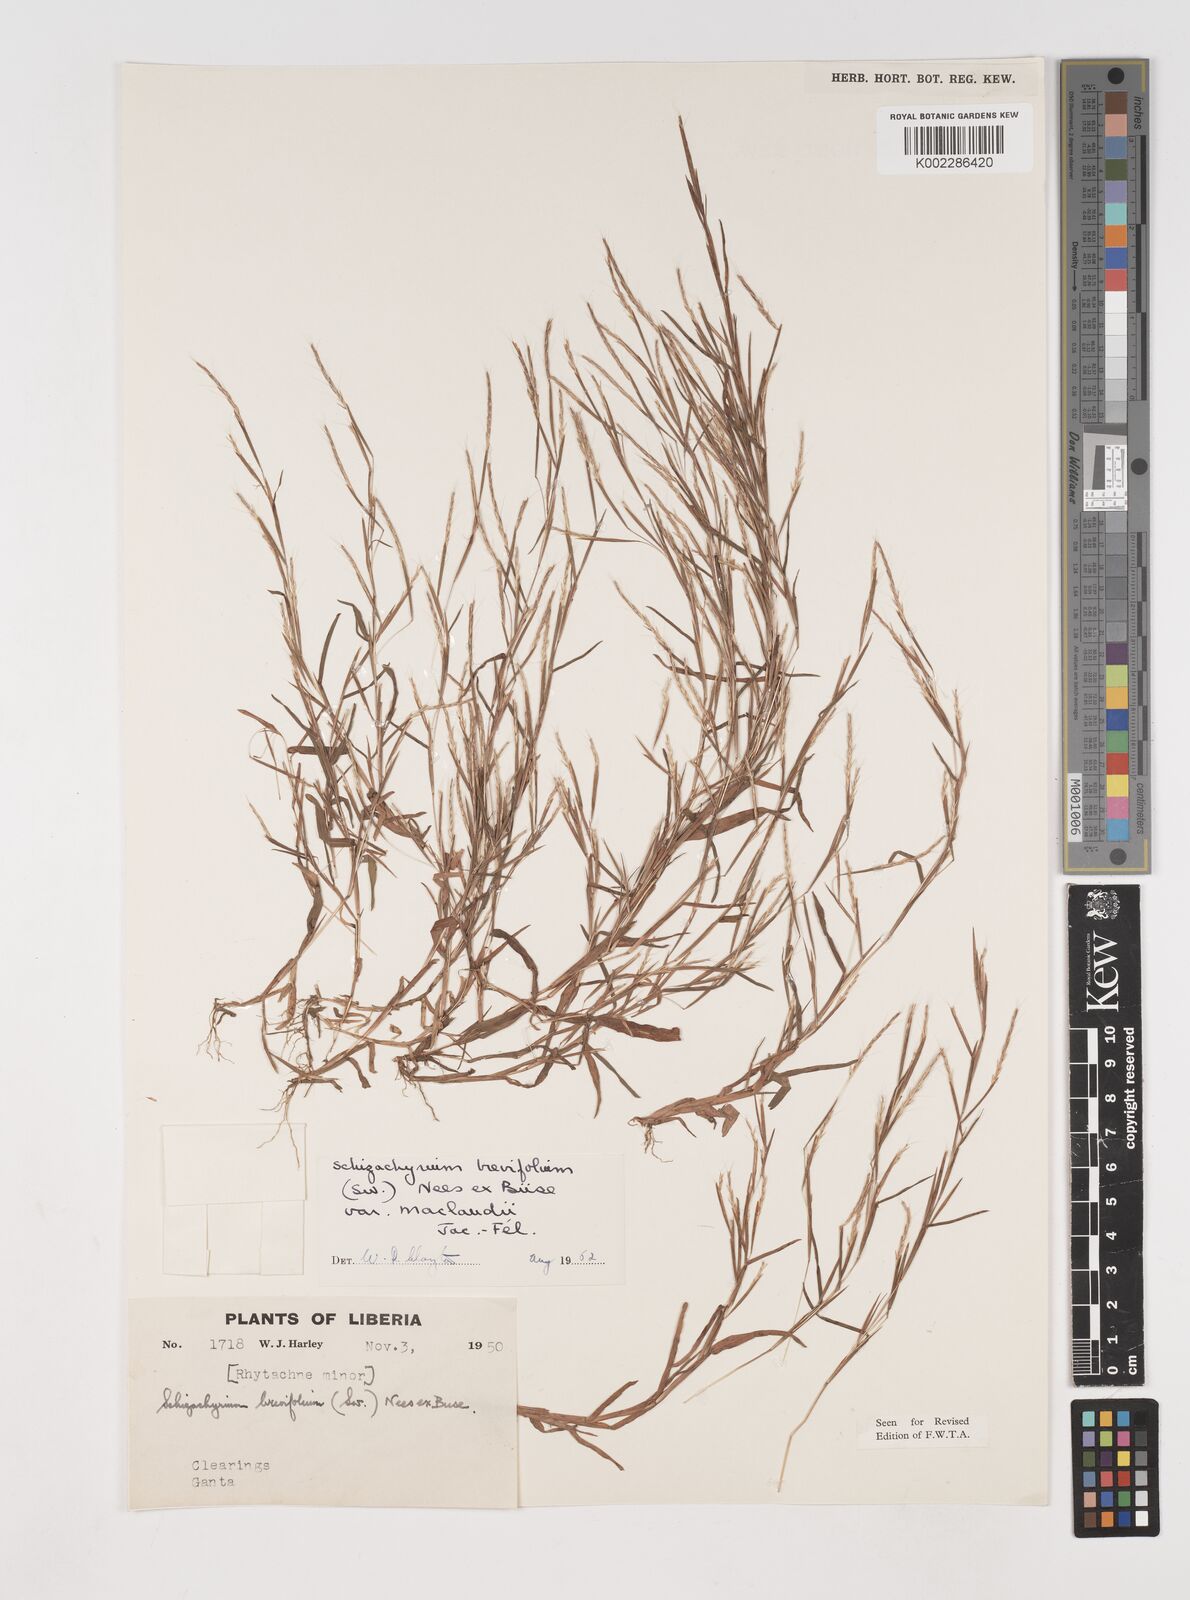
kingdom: Plantae
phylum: Tracheophyta
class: Liliopsida
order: Poales
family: Poaceae
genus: Schizachyrium
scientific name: Schizachyrium maclaudii
